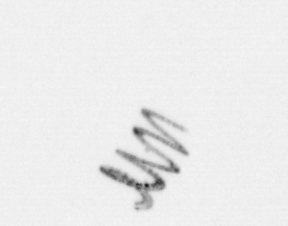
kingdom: Chromista
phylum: Ochrophyta
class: Bacillariophyceae
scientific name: Bacillariophyceae
